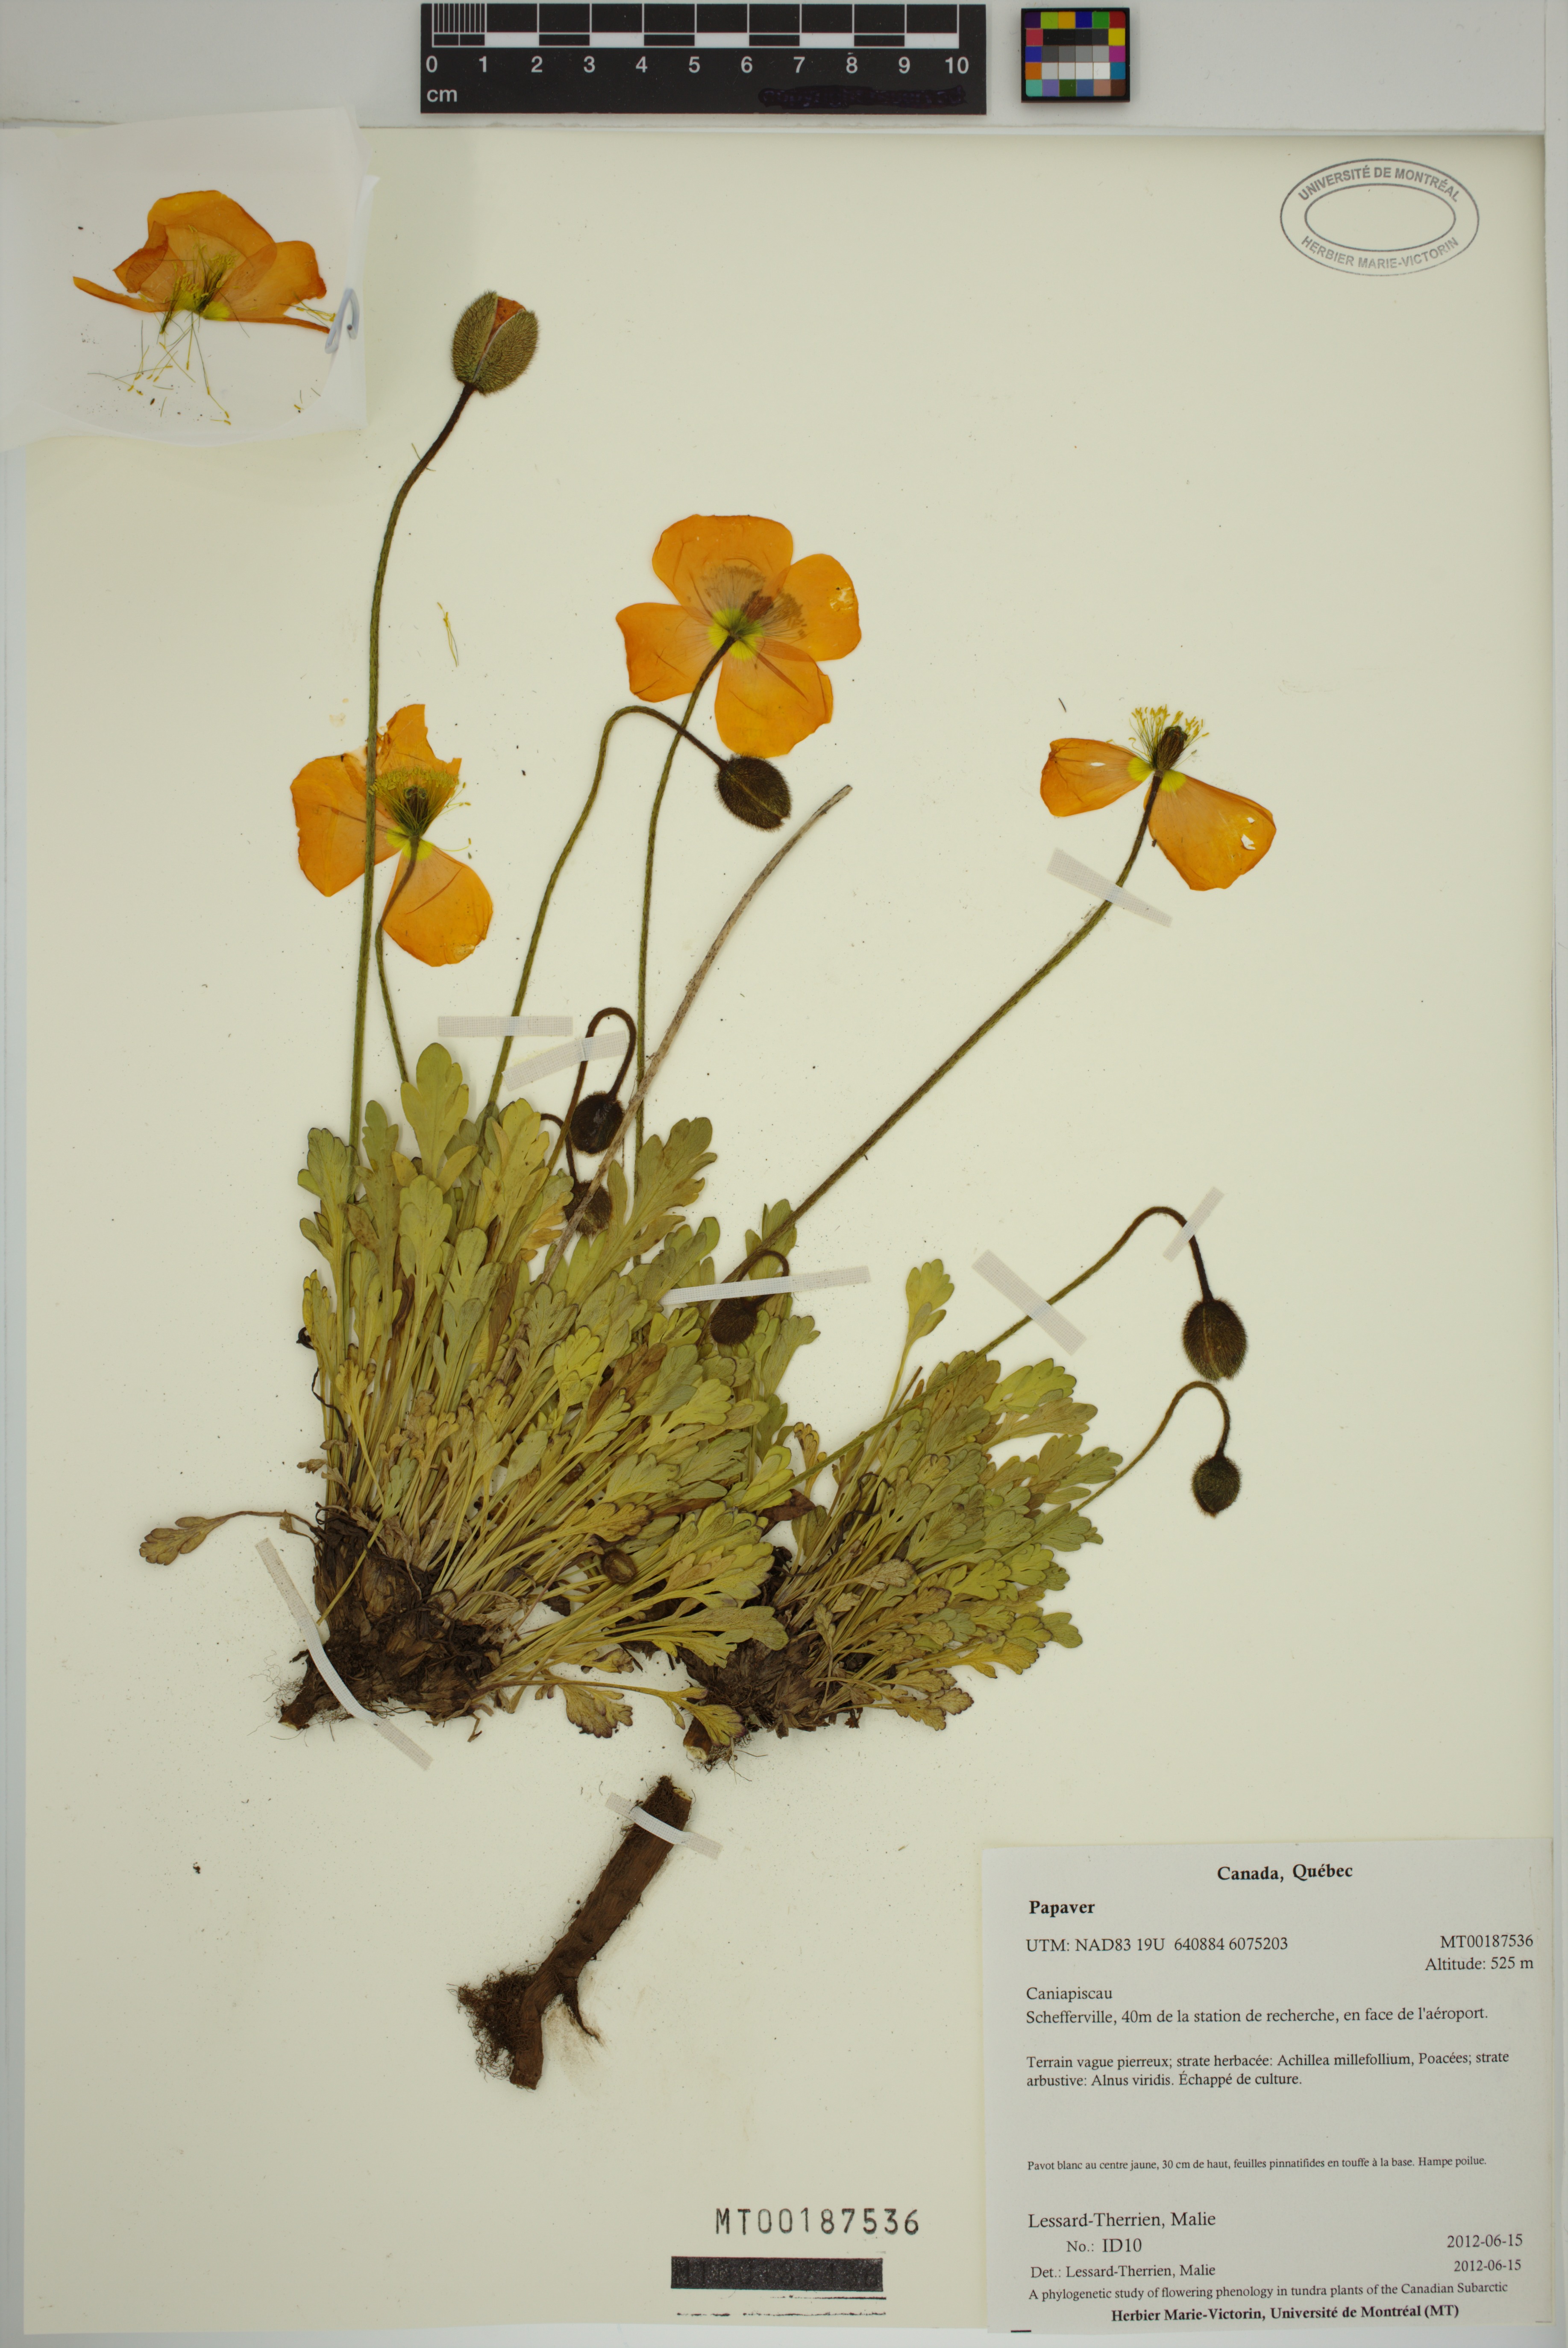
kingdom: Plantae
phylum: Tracheophyta
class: Magnoliopsida
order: Ranunculales
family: Papaveraceae
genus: Papaver
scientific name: Papaver
